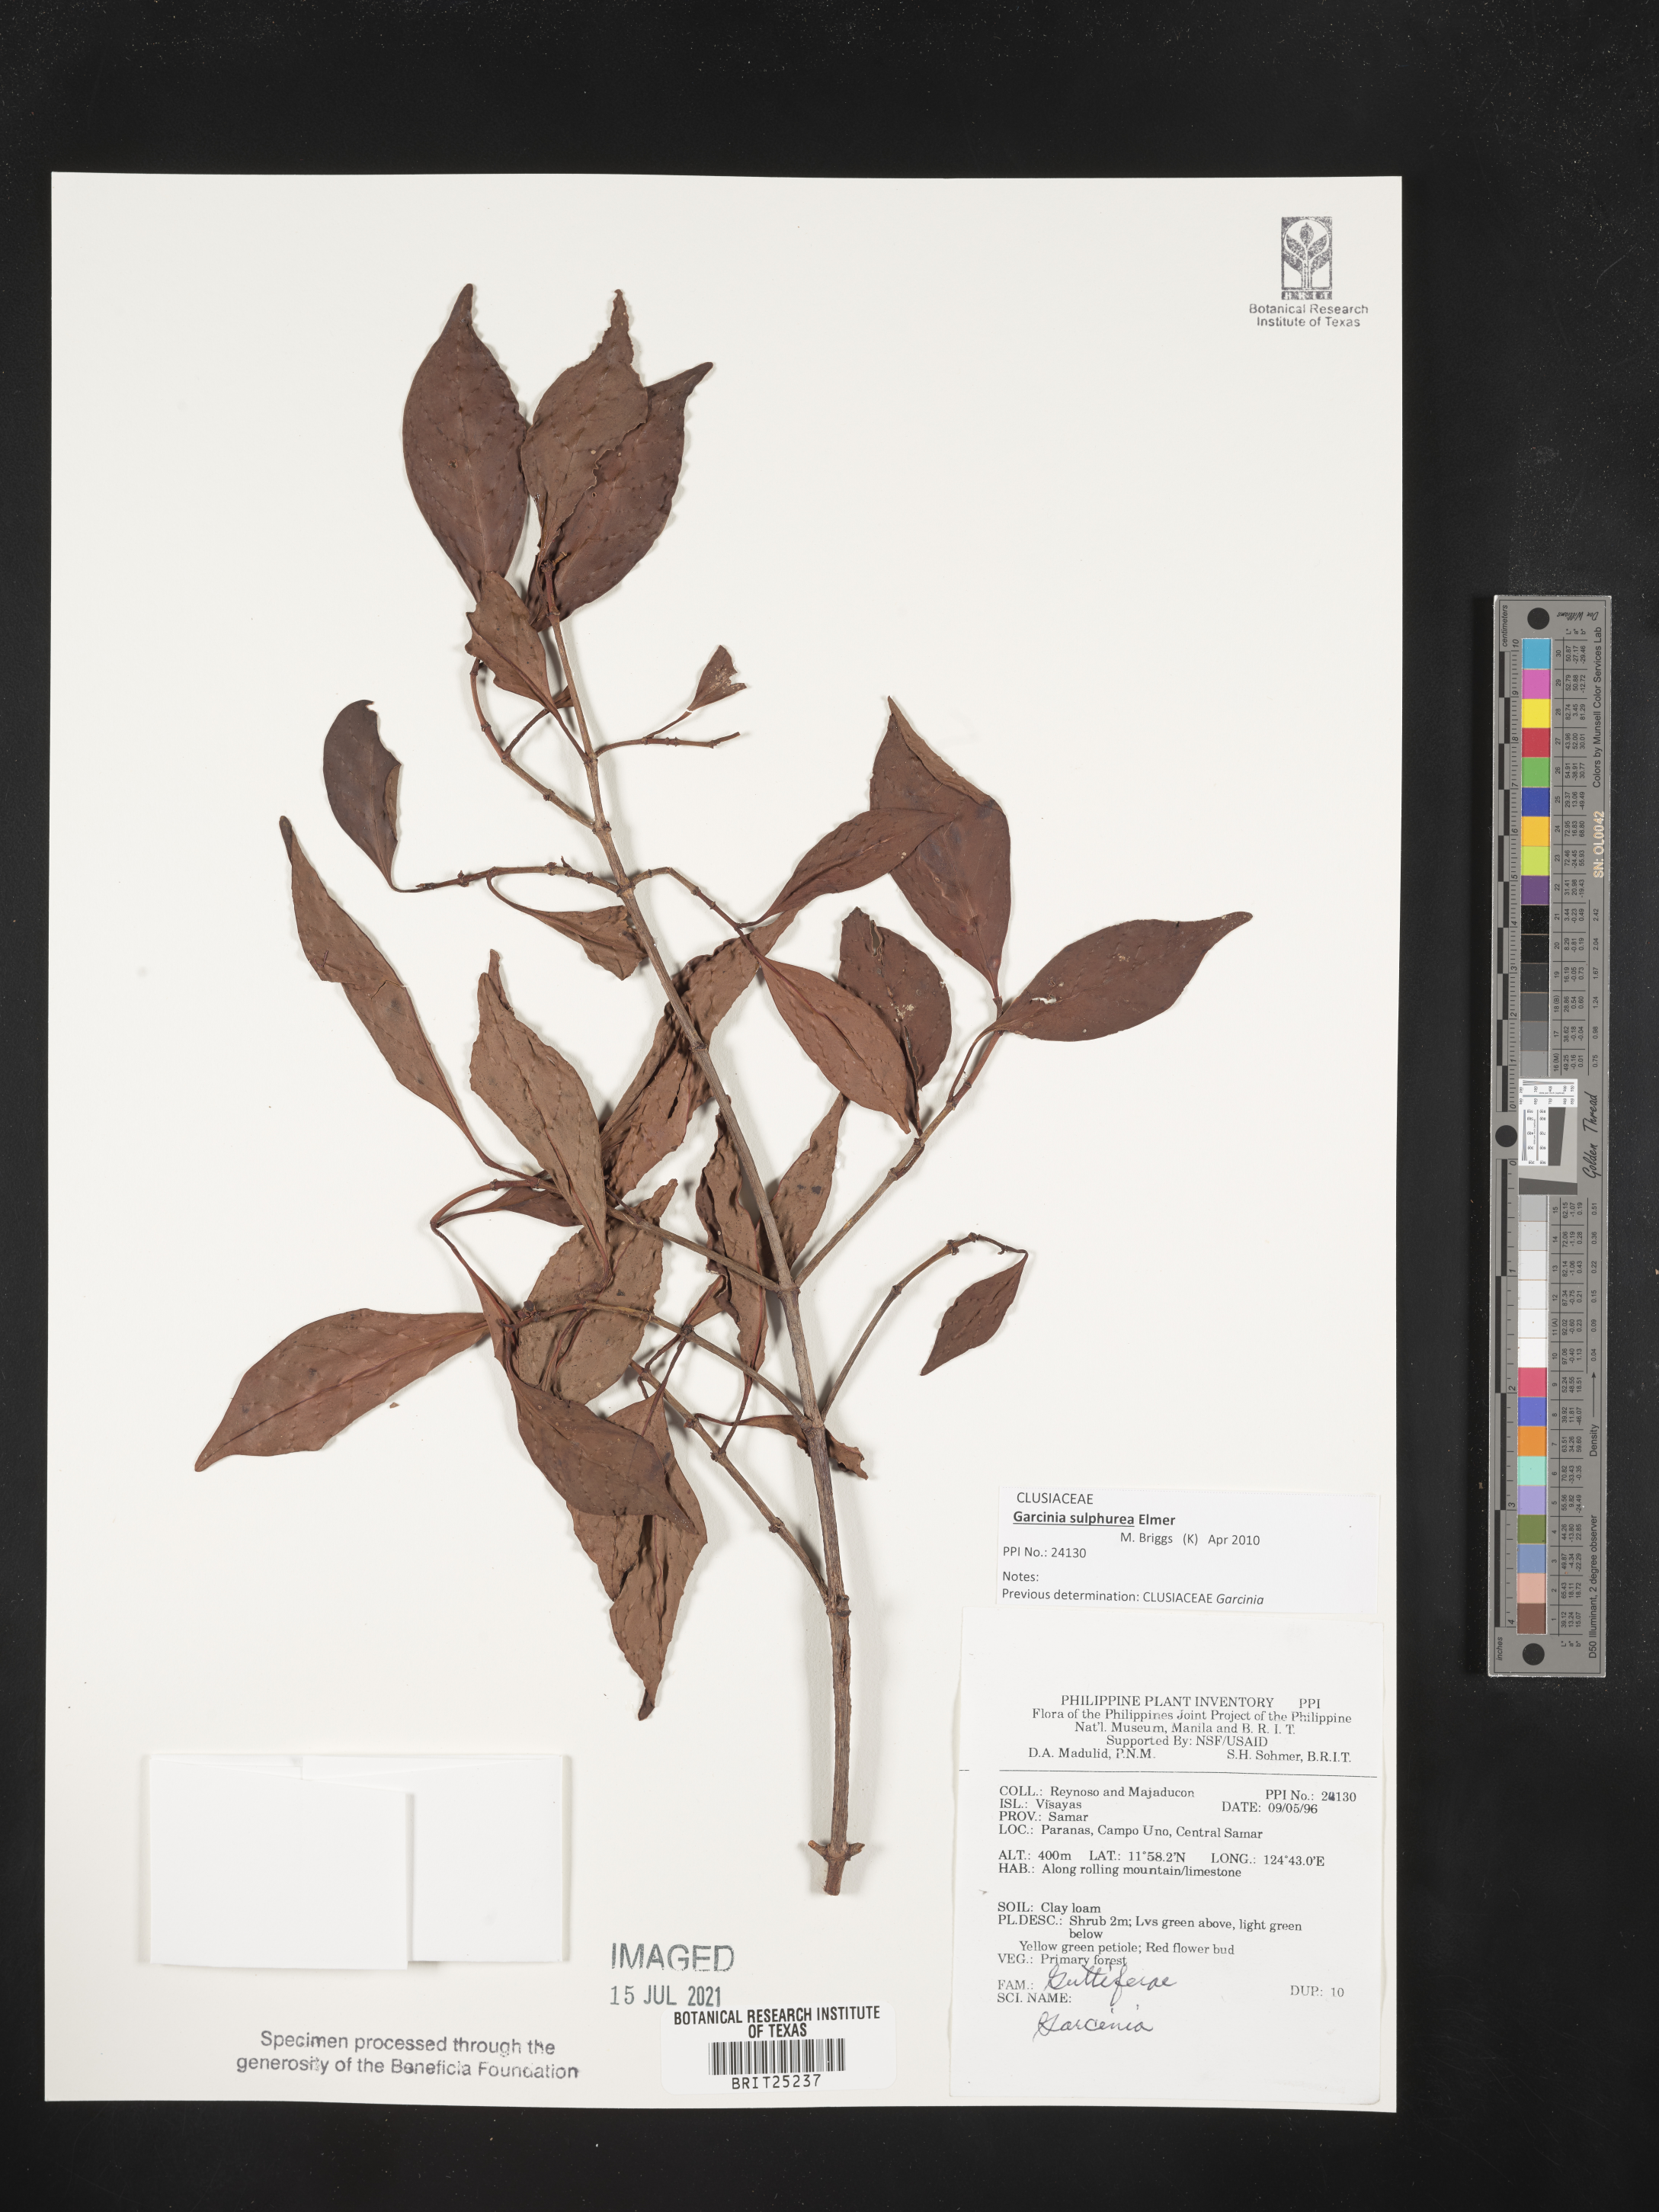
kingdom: Plantae
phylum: Tracheophyta
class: Magnoliopsida
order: Malpighiales
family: Clusiaceae
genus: Garcinia
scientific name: Garcinia
